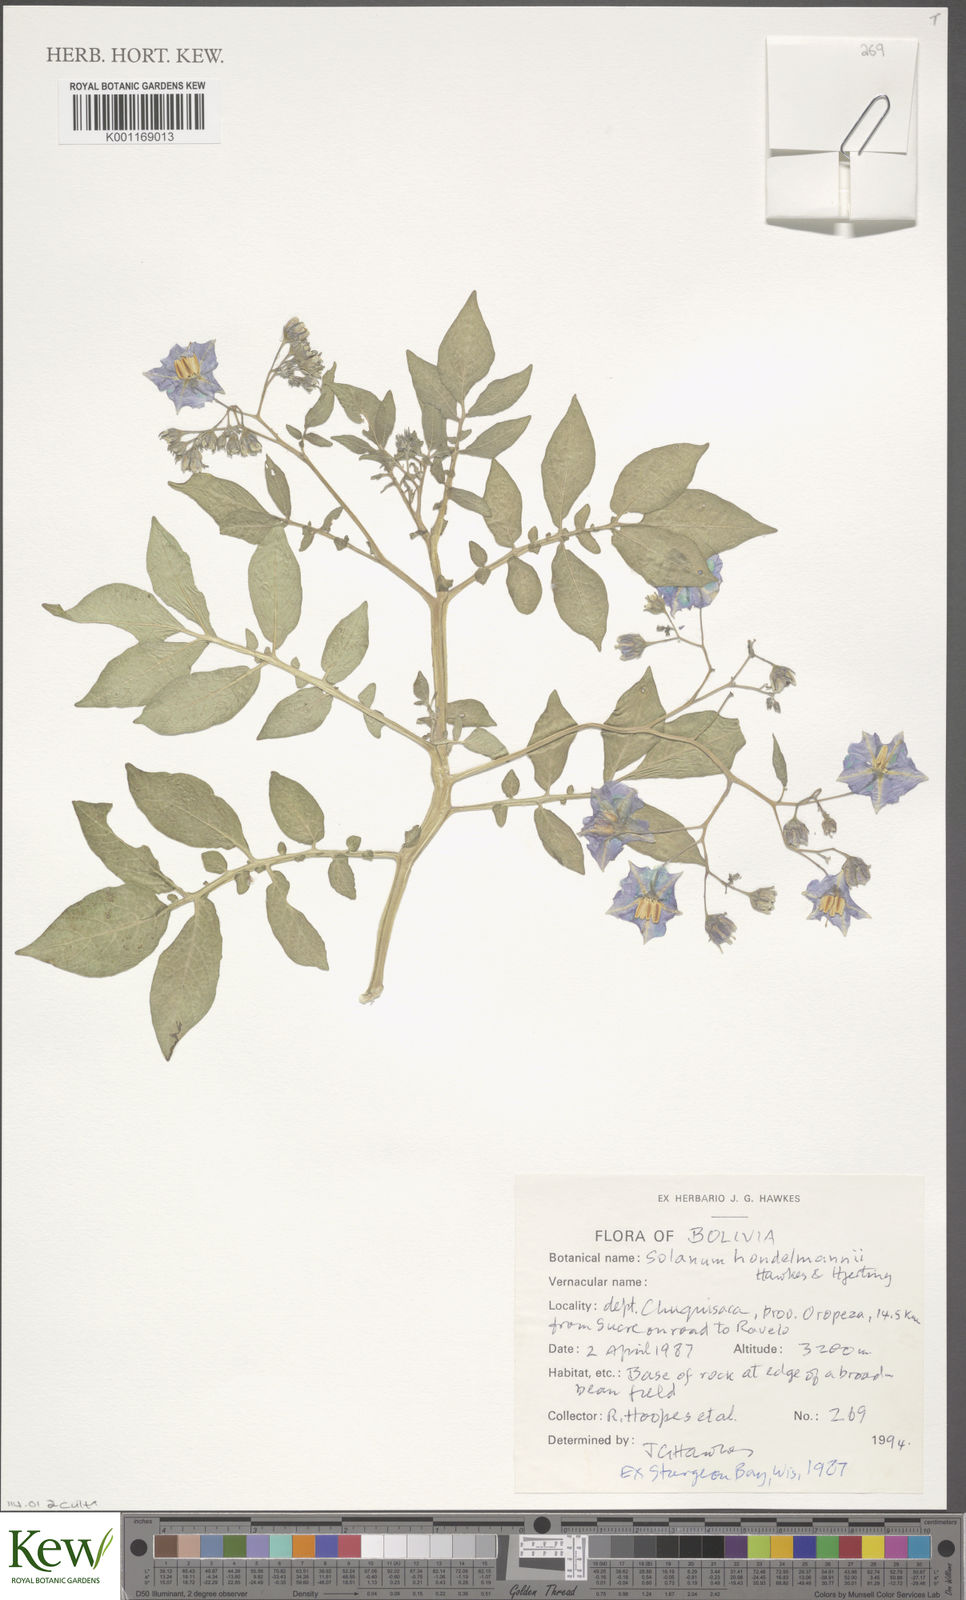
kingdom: Plantae
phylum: Tracheophyta
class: Magnoliopsida
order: Solanales
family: Solanaceae
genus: Solanum
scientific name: Solanum brevicaule
